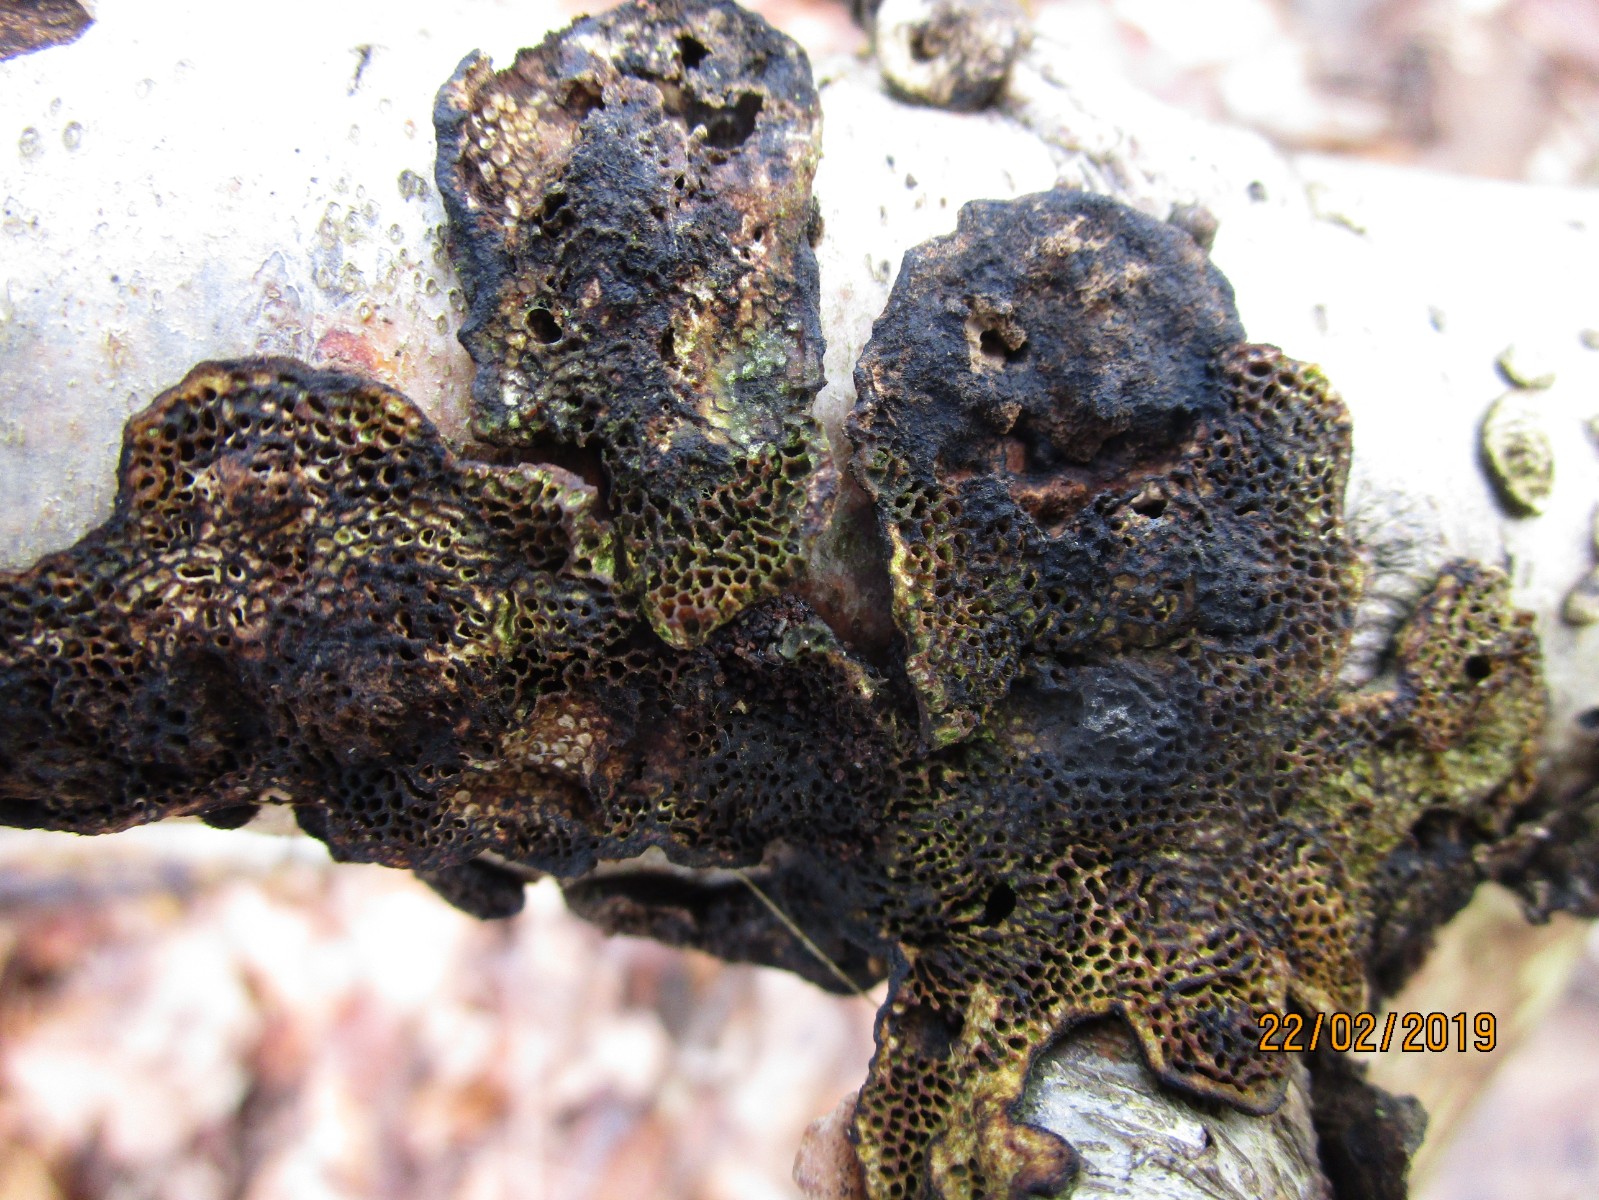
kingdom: Fungi
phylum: Basidiomycota
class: Agaricomycetes
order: Polyporales
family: Polyporaceae
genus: Podofomes
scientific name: Podofomes mollis
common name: blød begporesvamp
